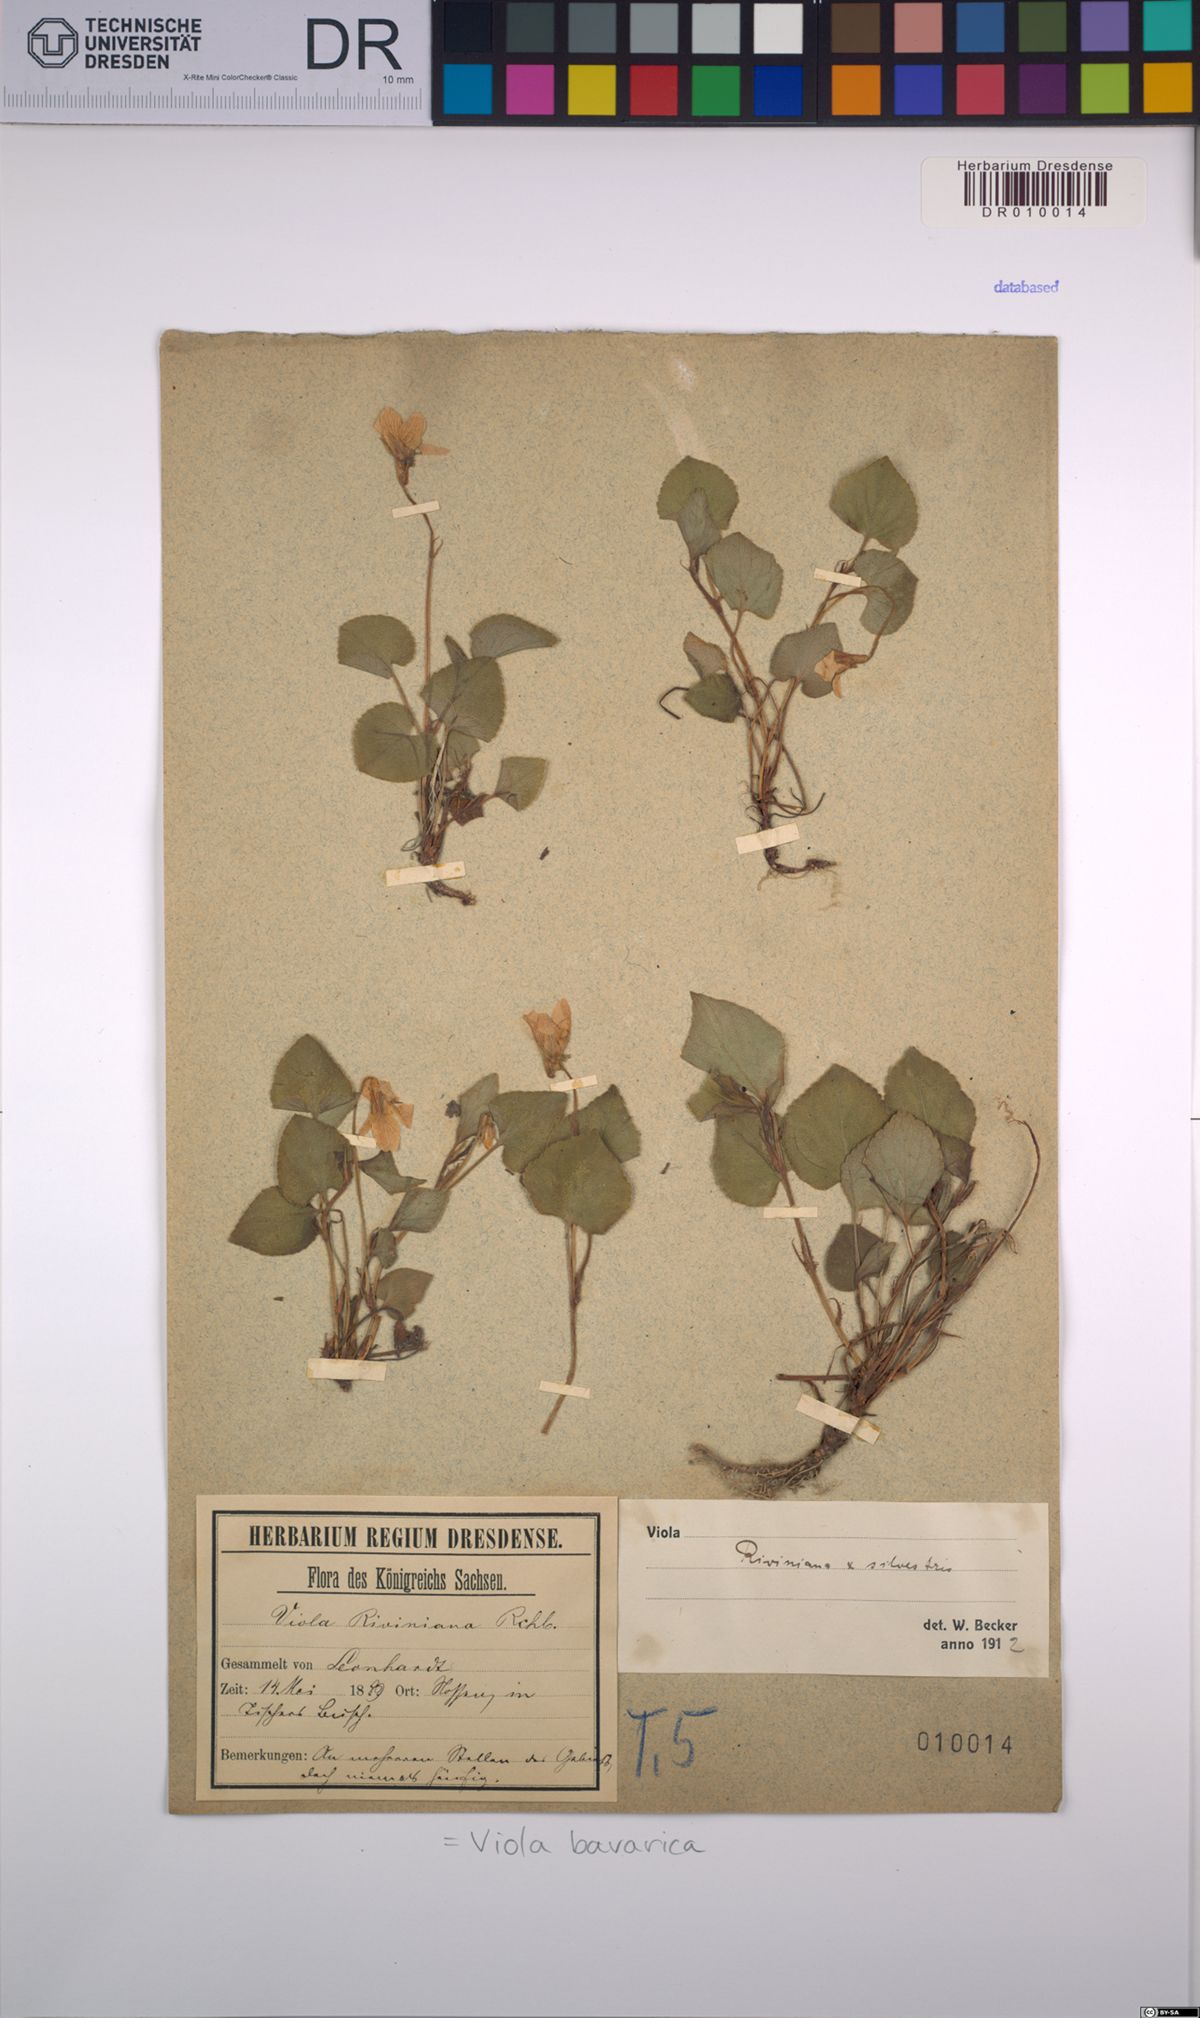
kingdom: Plantae
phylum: Tracheophyta
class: Magnoliopsida
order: Malpighiales
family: Violaceae
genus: Viola
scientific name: Viola bavarica
